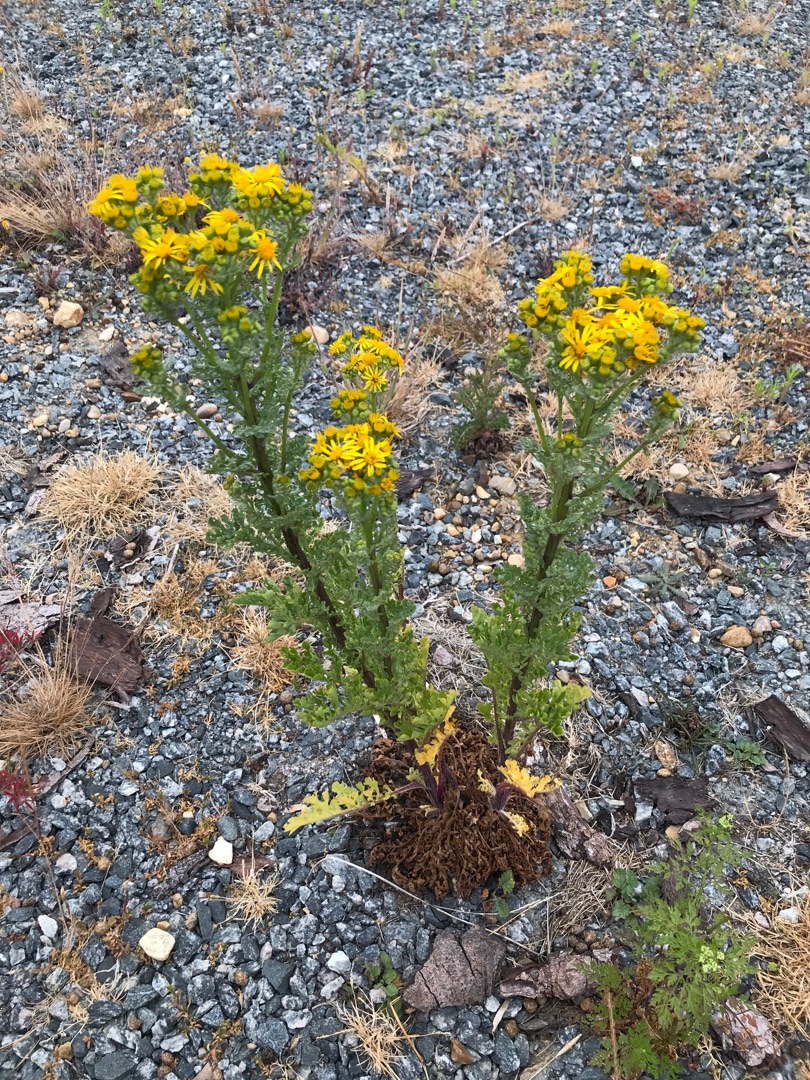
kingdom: Plantae
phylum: Tracheophyta
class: Magnoliopsida
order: Asterales
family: Asteraceae
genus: Jacobaea
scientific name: Jacobaea vulgaris
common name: Eng-brandbæger
